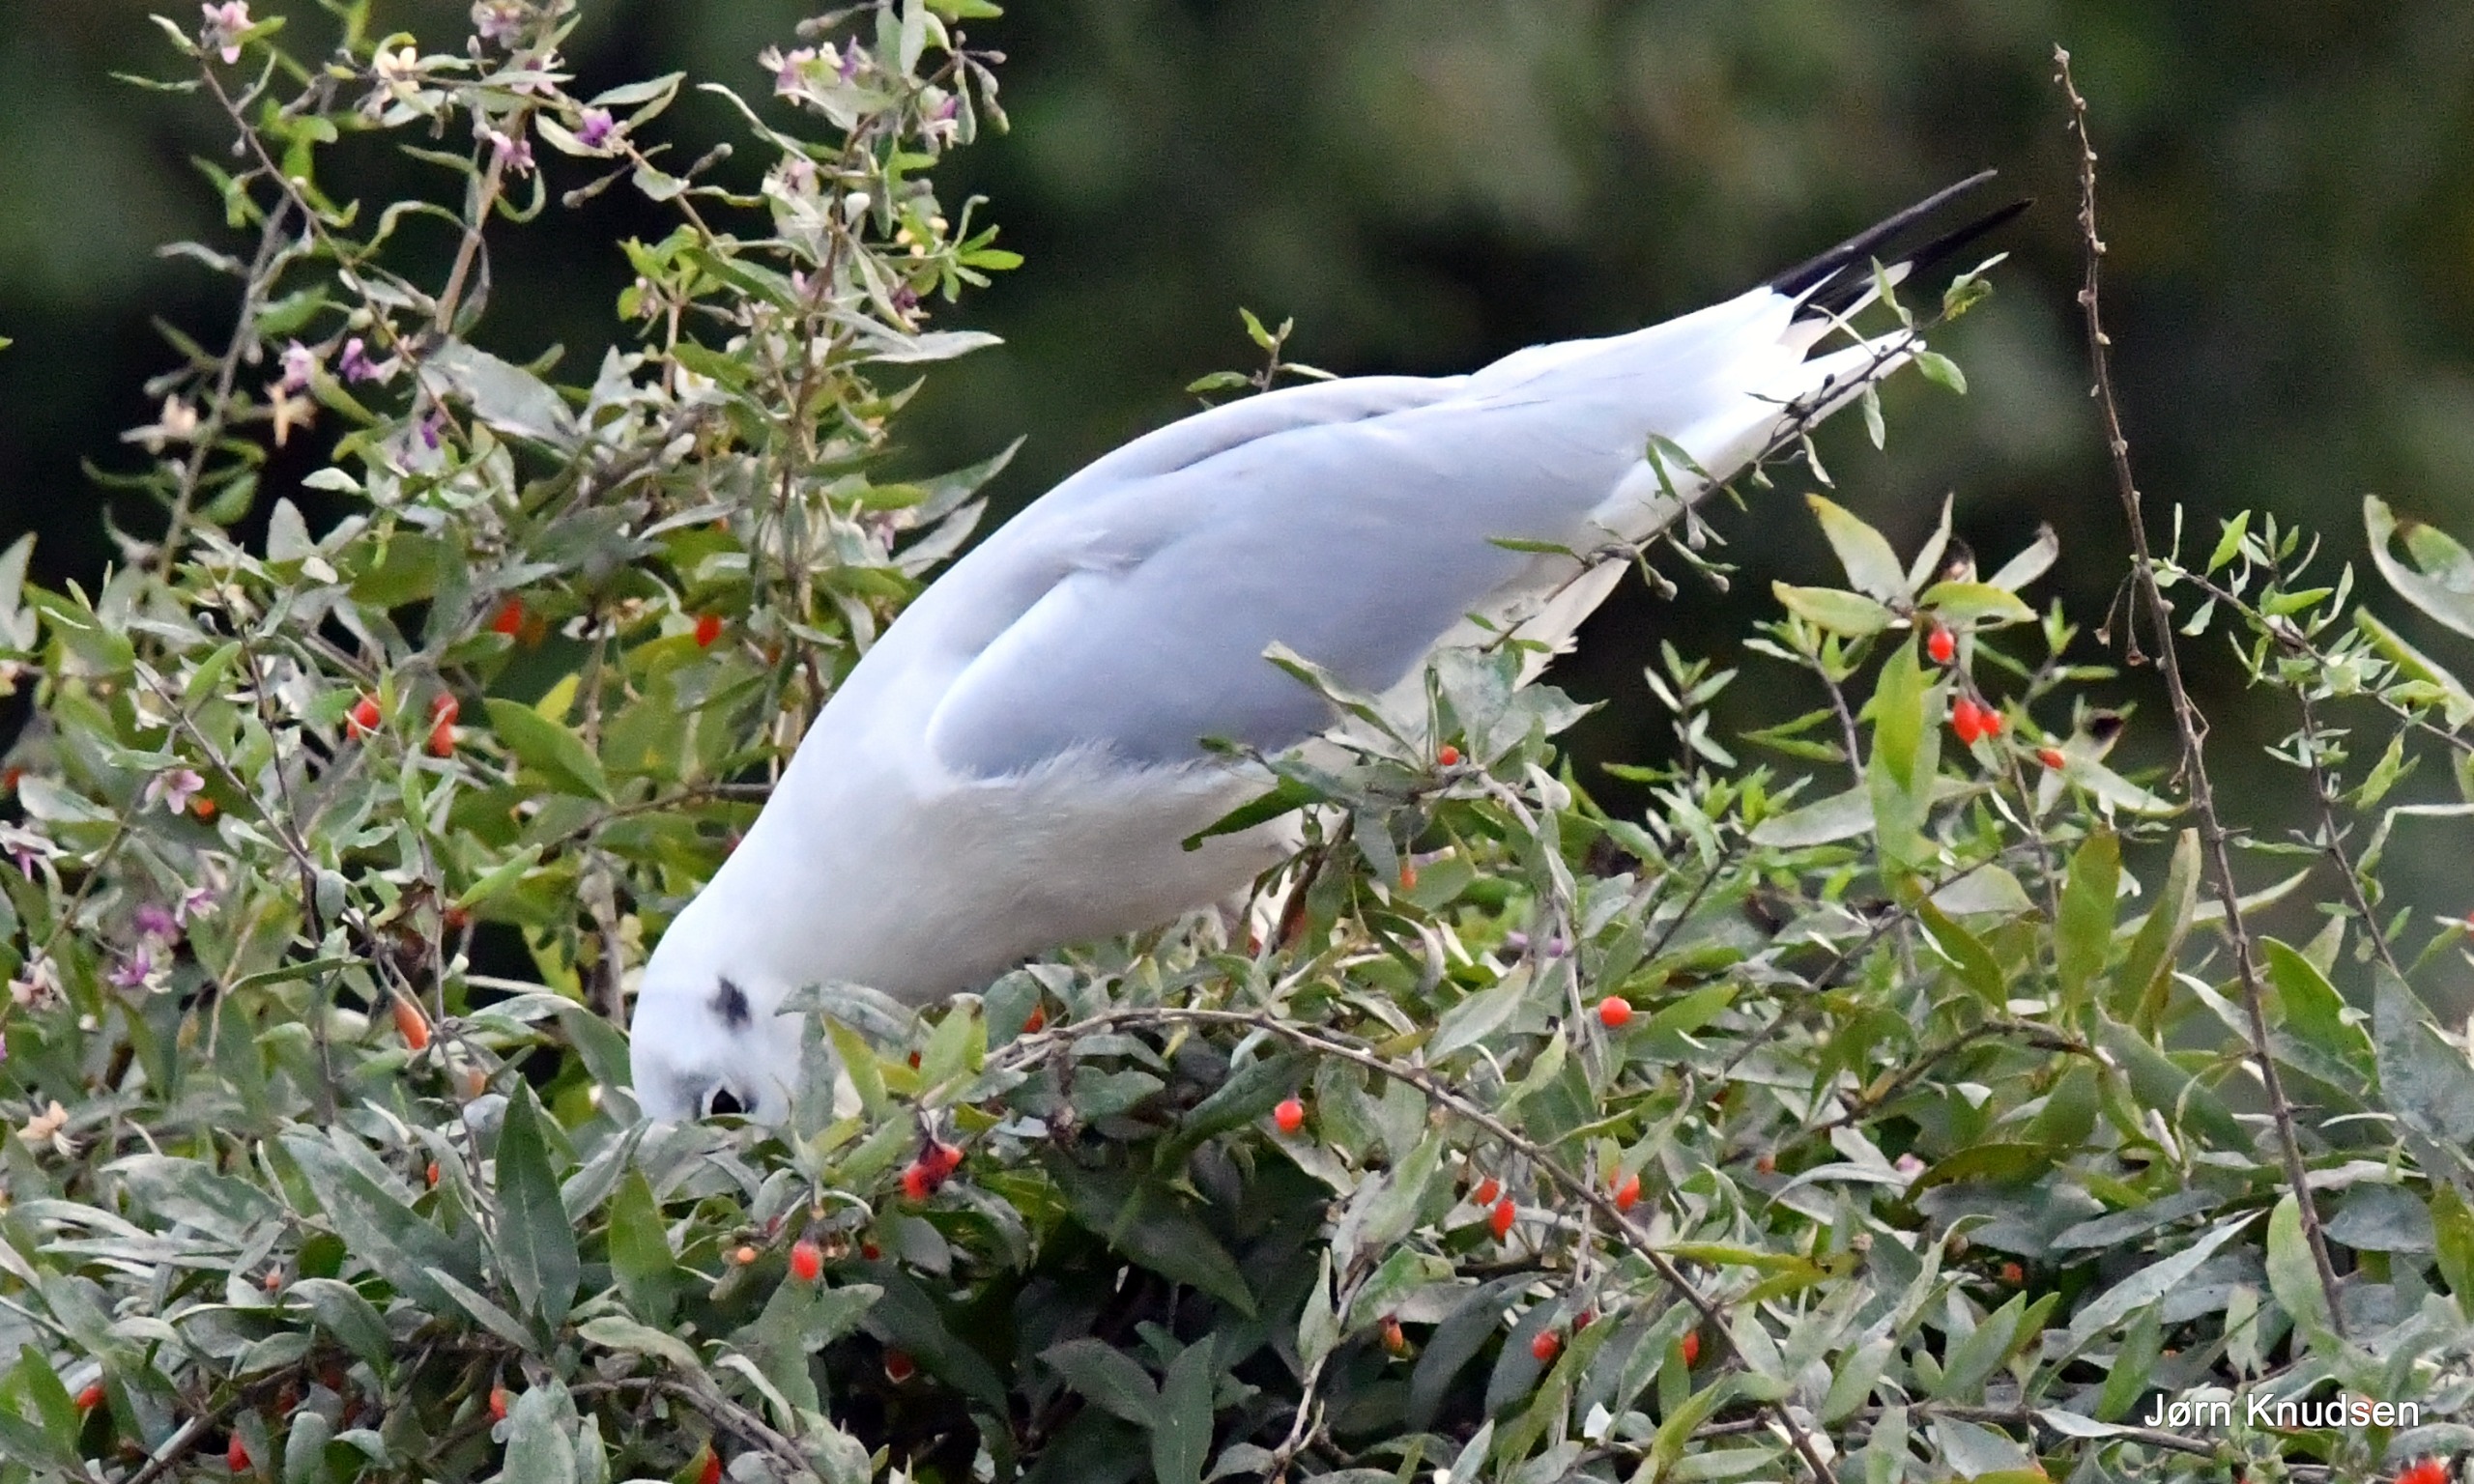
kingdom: Animalia
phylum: Chordata
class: Aves
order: Charadriiformes
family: Laridae
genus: Chroicocephalus
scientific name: Chroicocephalus ridibundus
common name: Hættemåge
